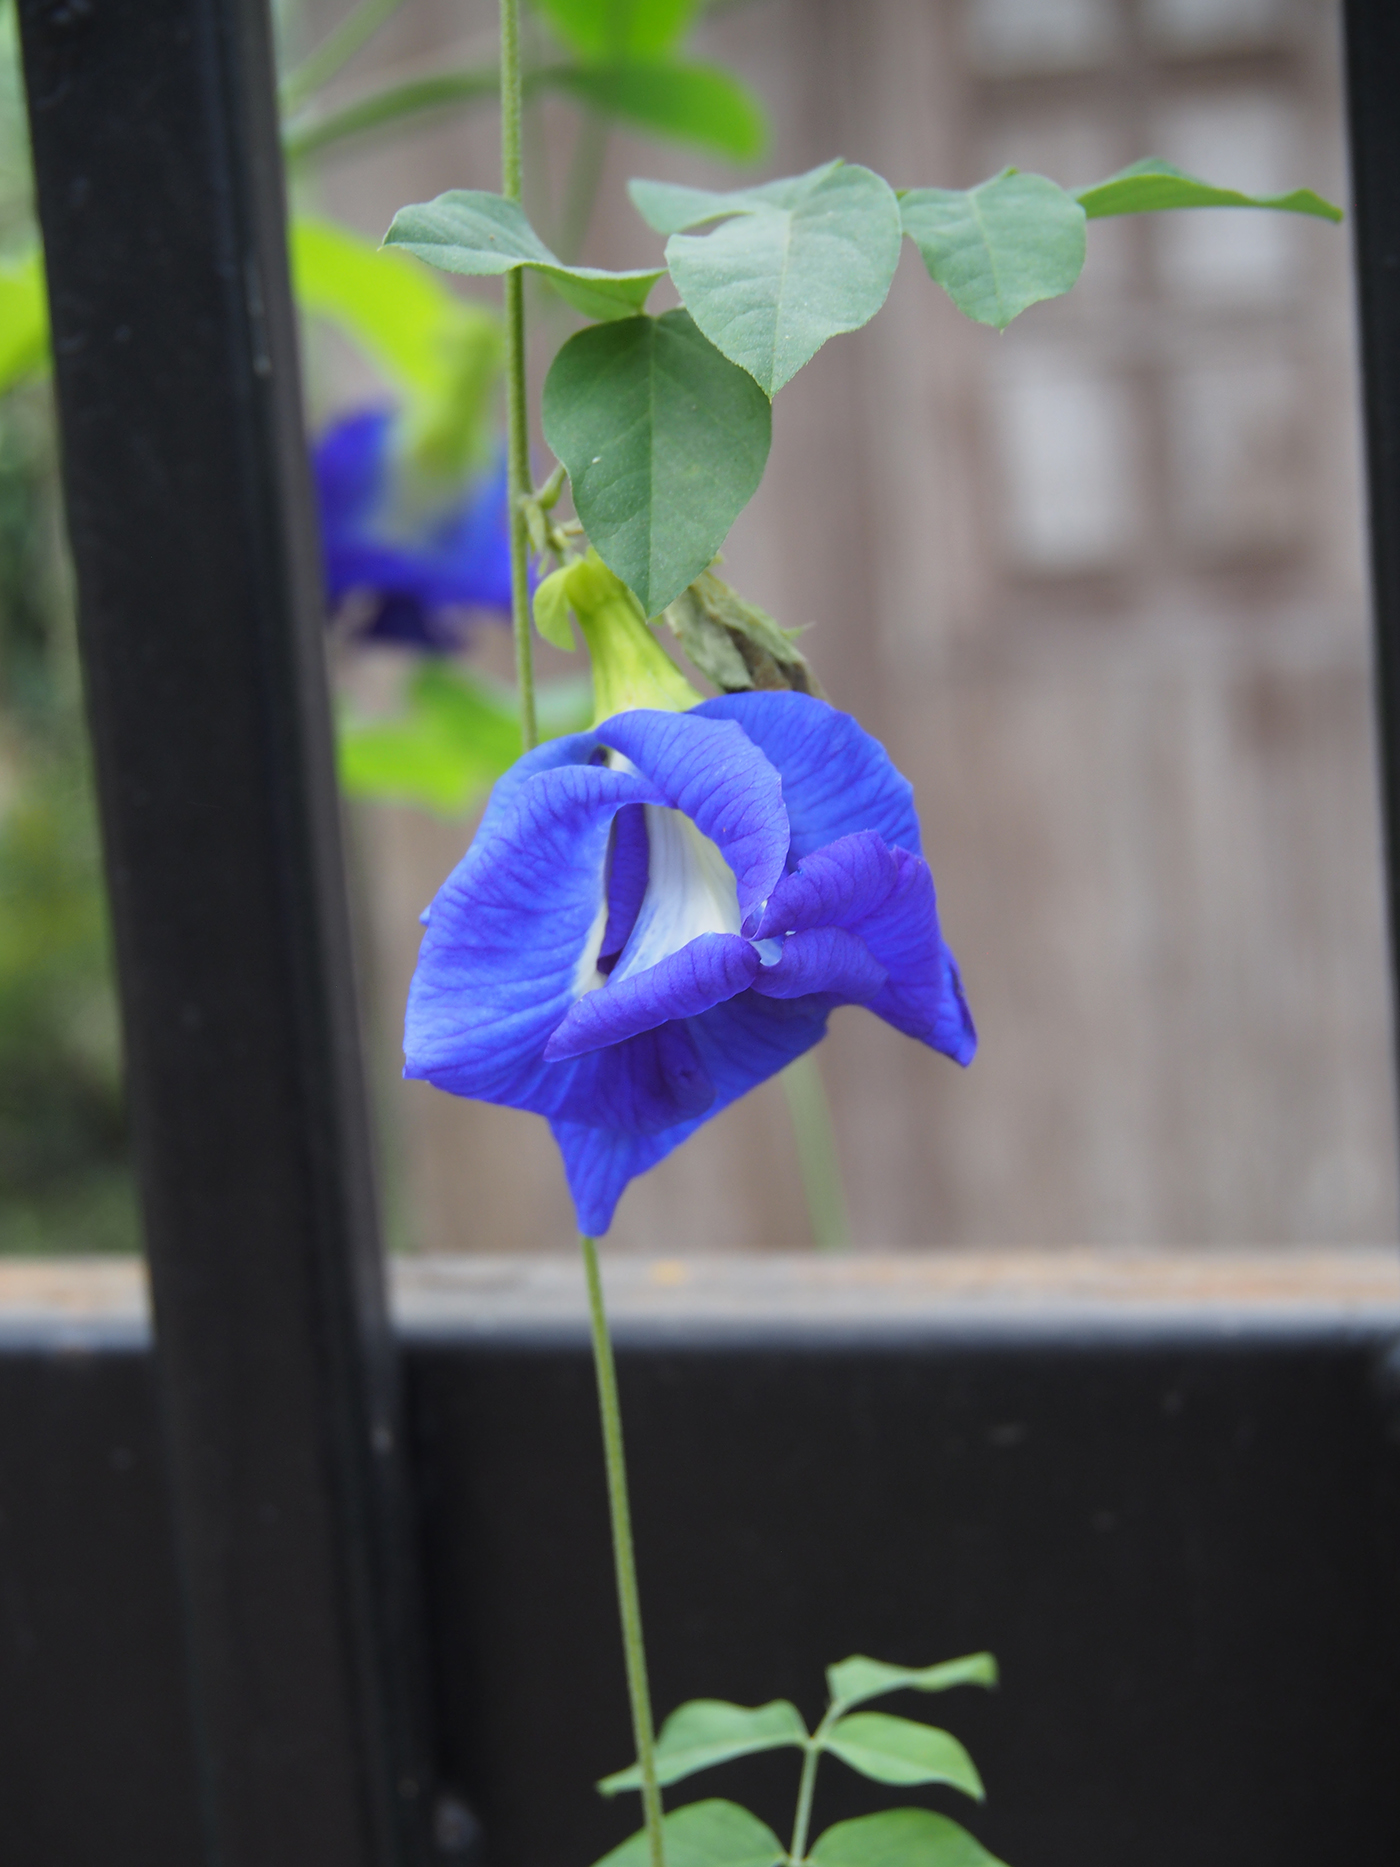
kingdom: Plantae
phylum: Tracheophyta
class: Magnoliopsida
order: Fabales
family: Fabaceae
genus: Clitoria
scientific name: Clitoria ternatea
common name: Asian pigeonwings
